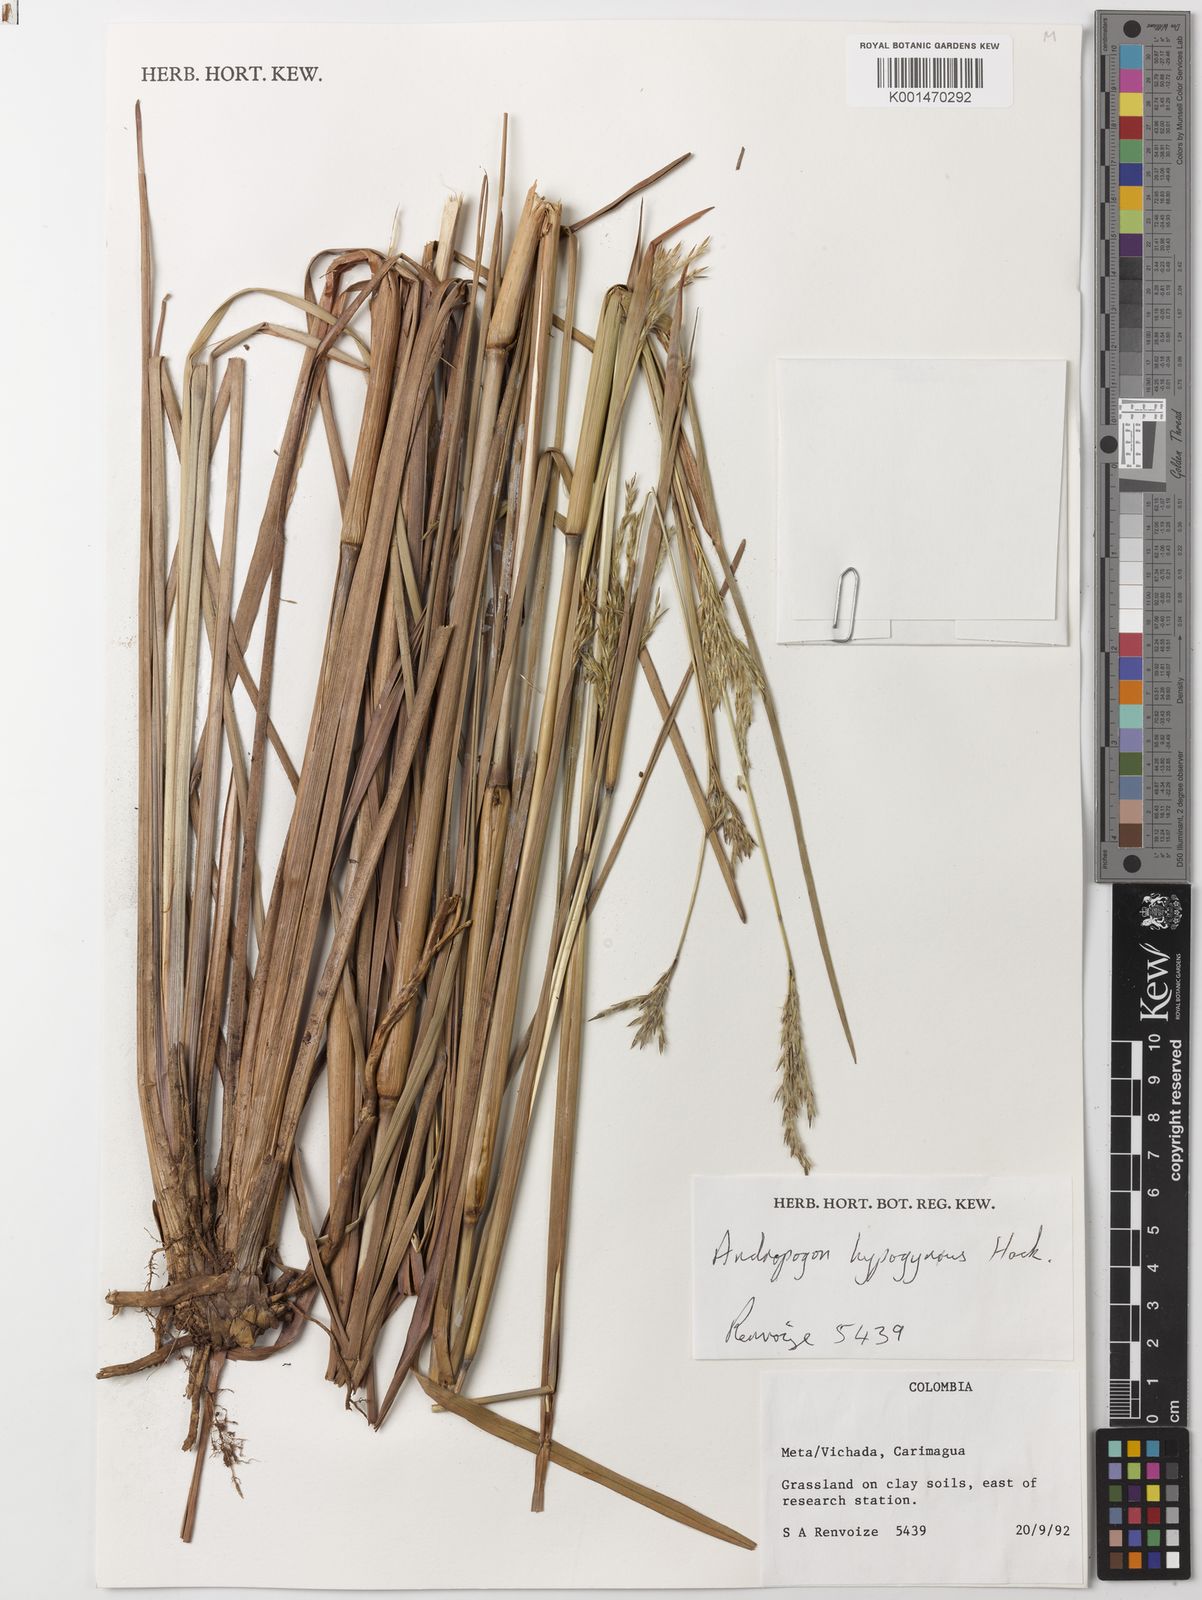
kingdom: Plantae
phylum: Tracheophyta
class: Liliopsida
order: Poales
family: Poaceae
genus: Andropogon
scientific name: Andropogon hypogynus
